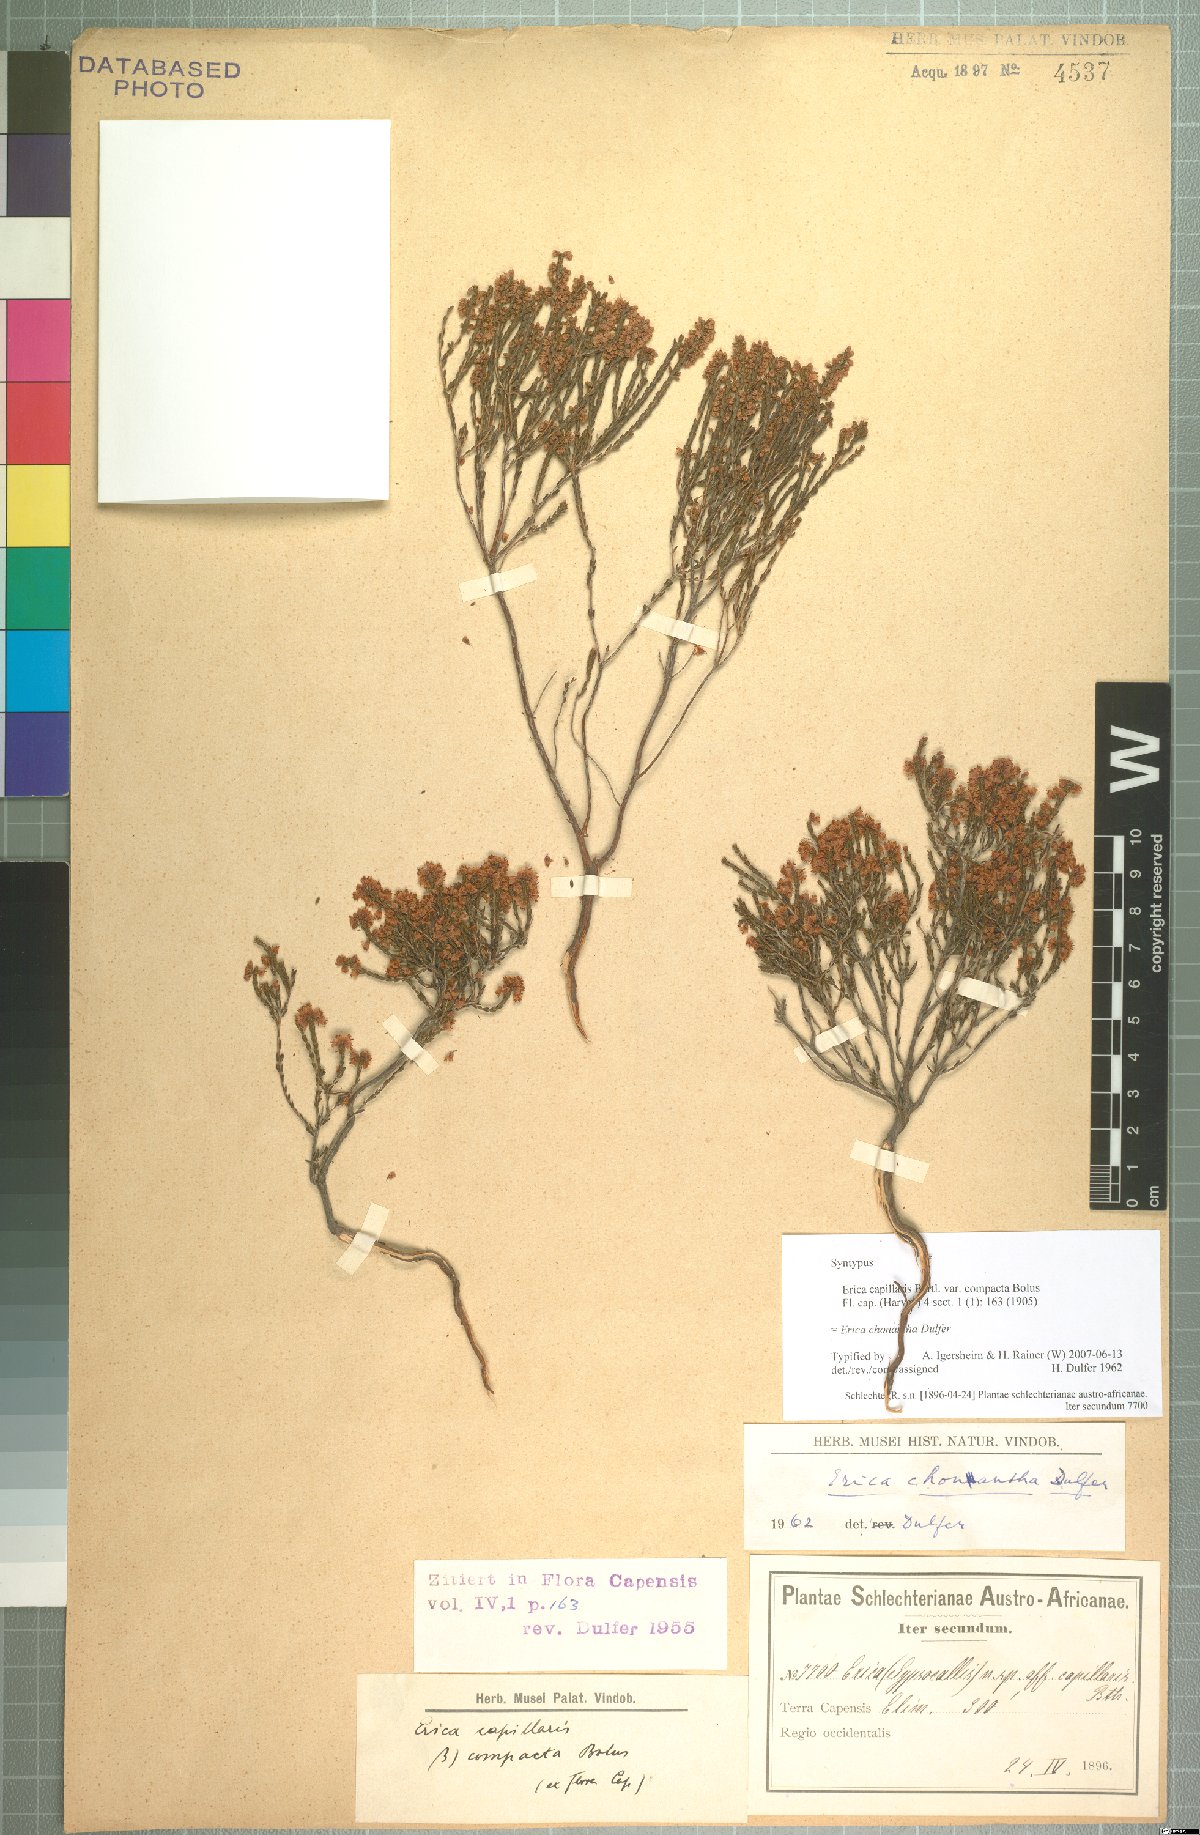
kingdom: Plantae
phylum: Tracheophyta
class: Magnoliopsida
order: Ericales
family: Ericaceae
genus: Erica
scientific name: Erica chonantha
